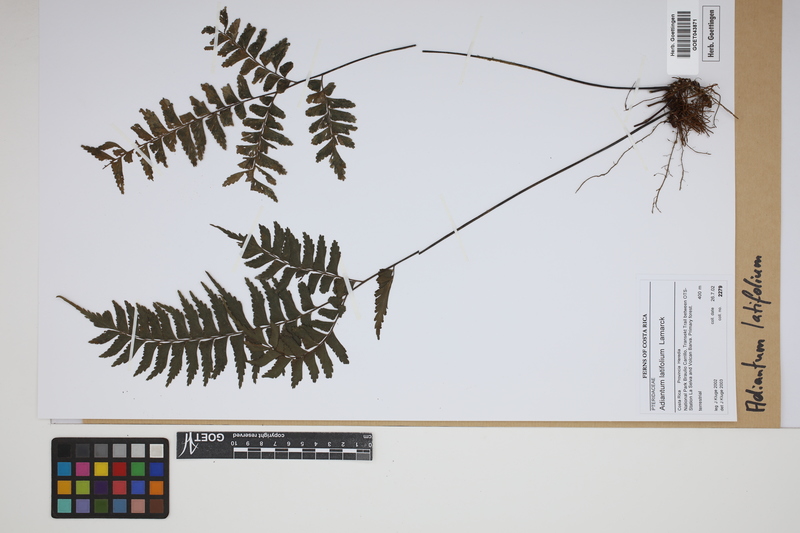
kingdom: Plantae
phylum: Tracheophyta
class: Polypodiopsida
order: Polypodiales
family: Pteridaceae
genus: Adiantum
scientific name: Adiantum latifolium
